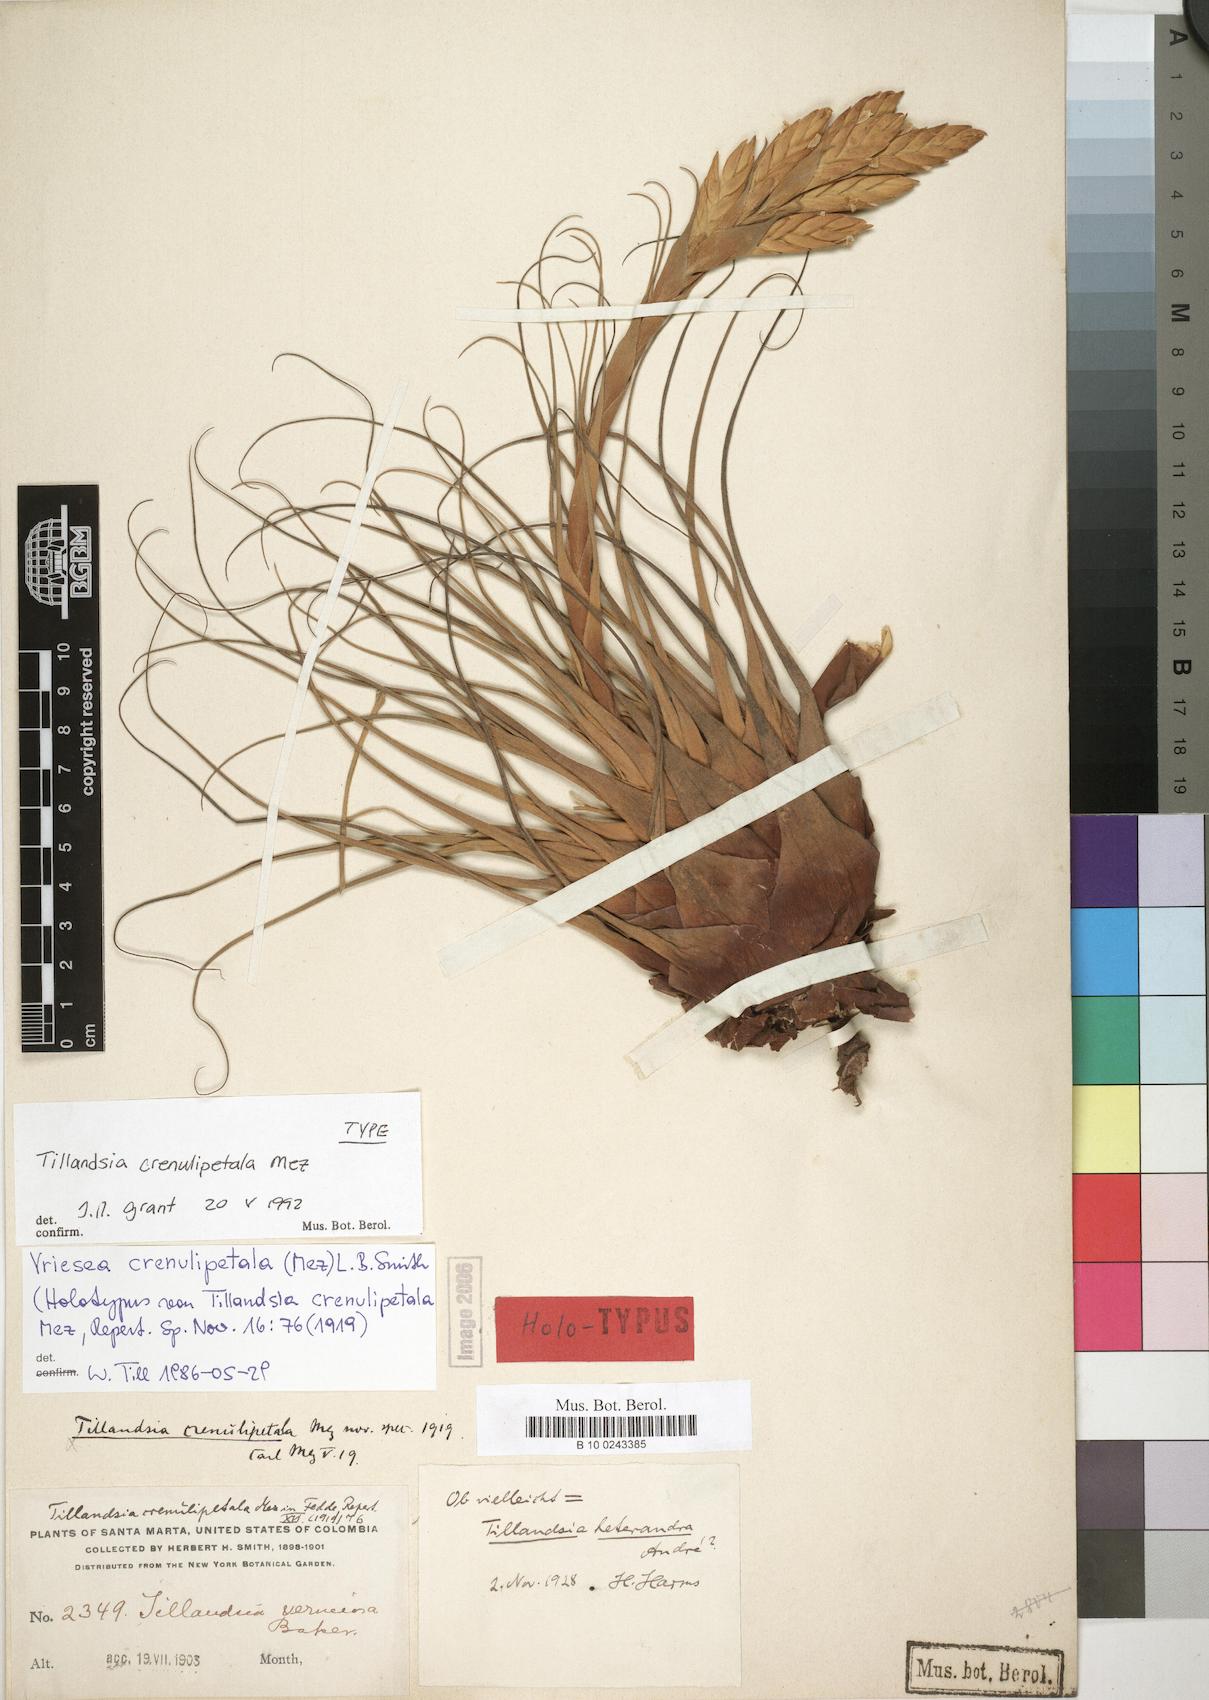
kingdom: Plantae
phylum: Tracheophyta
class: Liliopsida
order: Poales
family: Bromeliaceae
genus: Tillandsia
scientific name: Tillandsia crenulipetala
